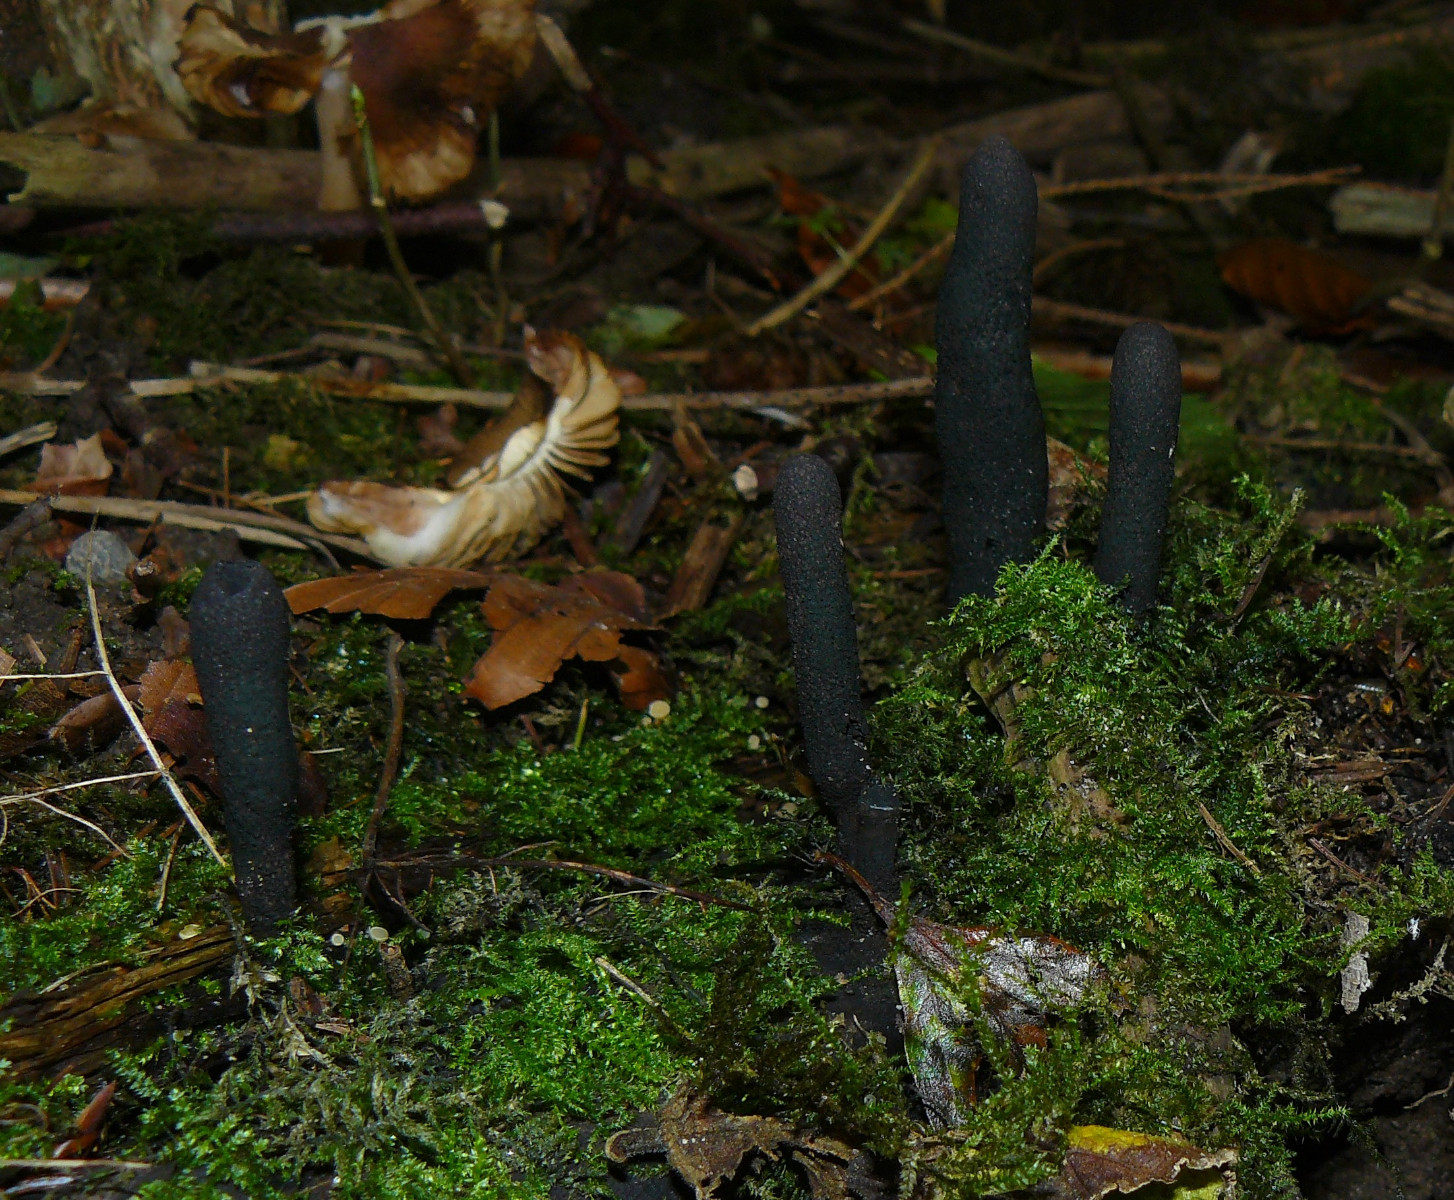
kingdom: Fungi
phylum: Ascomycota
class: Sordariomycetes
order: Xylariales
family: Xylariaceae
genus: Xylaria
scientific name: Xylaria longipes
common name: slank stødsvamp
